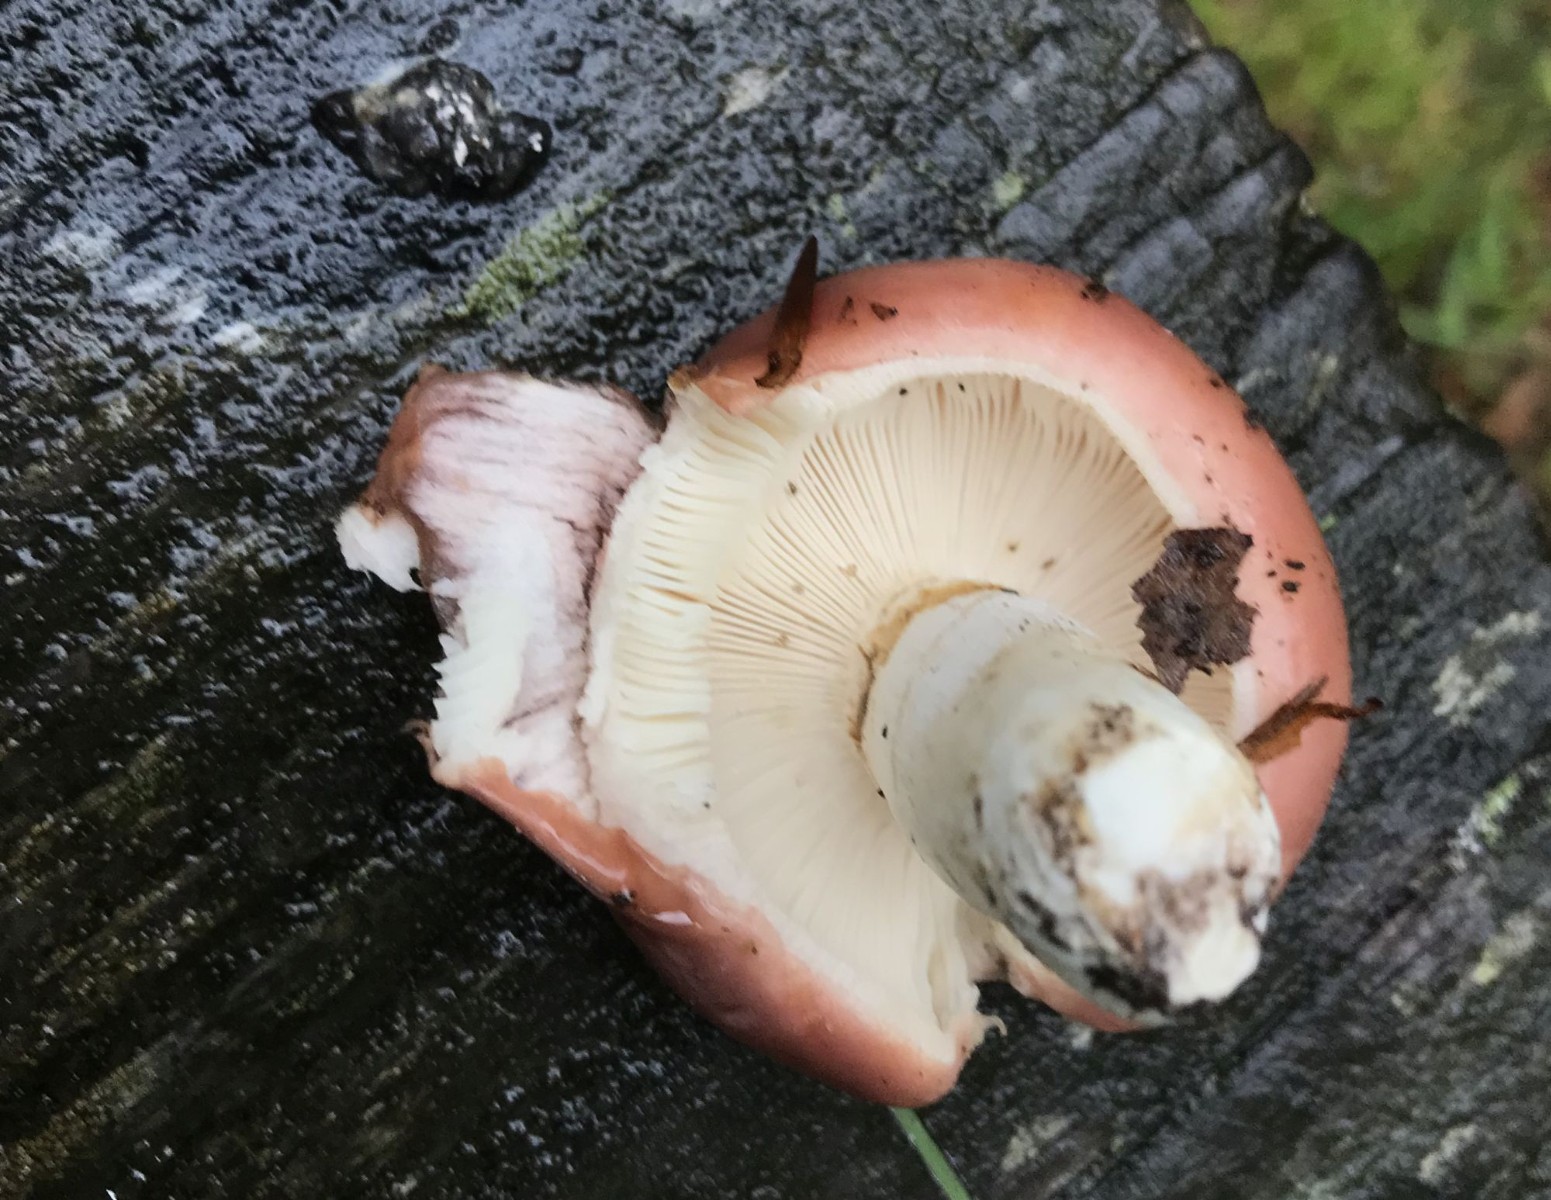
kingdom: Fungi
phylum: Basidiomycota
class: Agaricomycetes
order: Russulales
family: Russulaceae
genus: Russula
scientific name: Russula vesca
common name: spiselig skørhat
